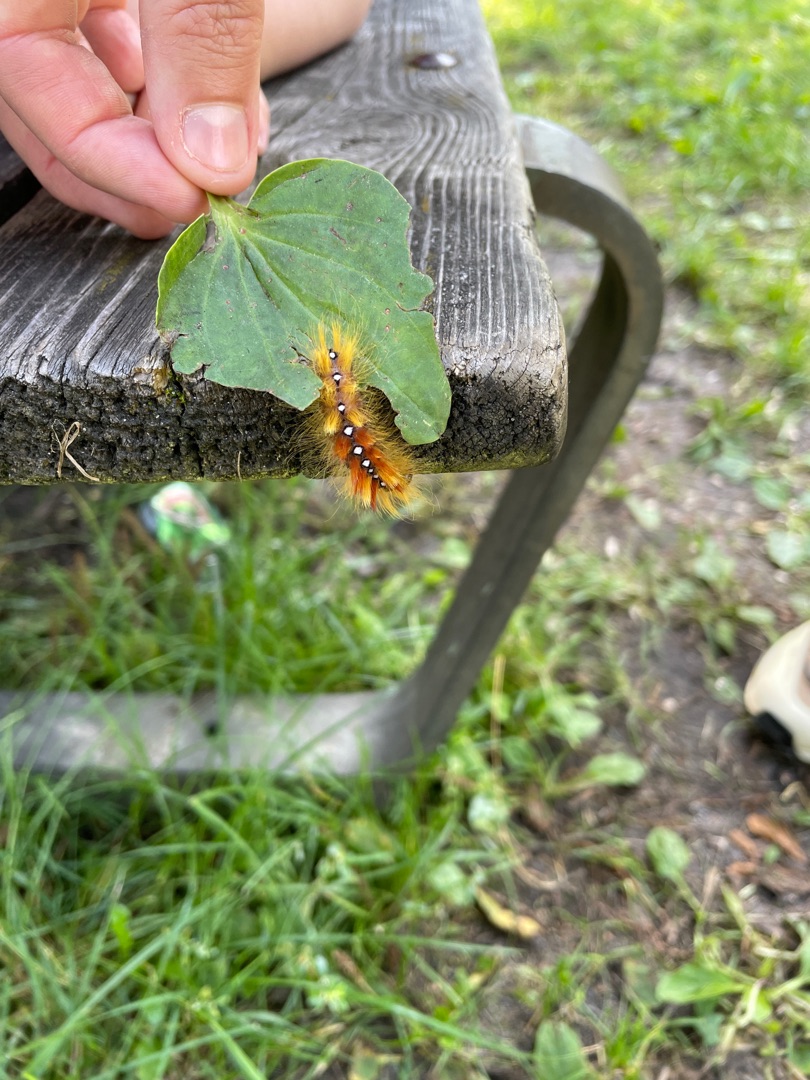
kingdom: Animalia
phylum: Arthropoda
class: Insecta
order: Lepidoptera
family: Noctuidae
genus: Acronicta
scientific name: Acronicta aceris
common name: Ahornugle
